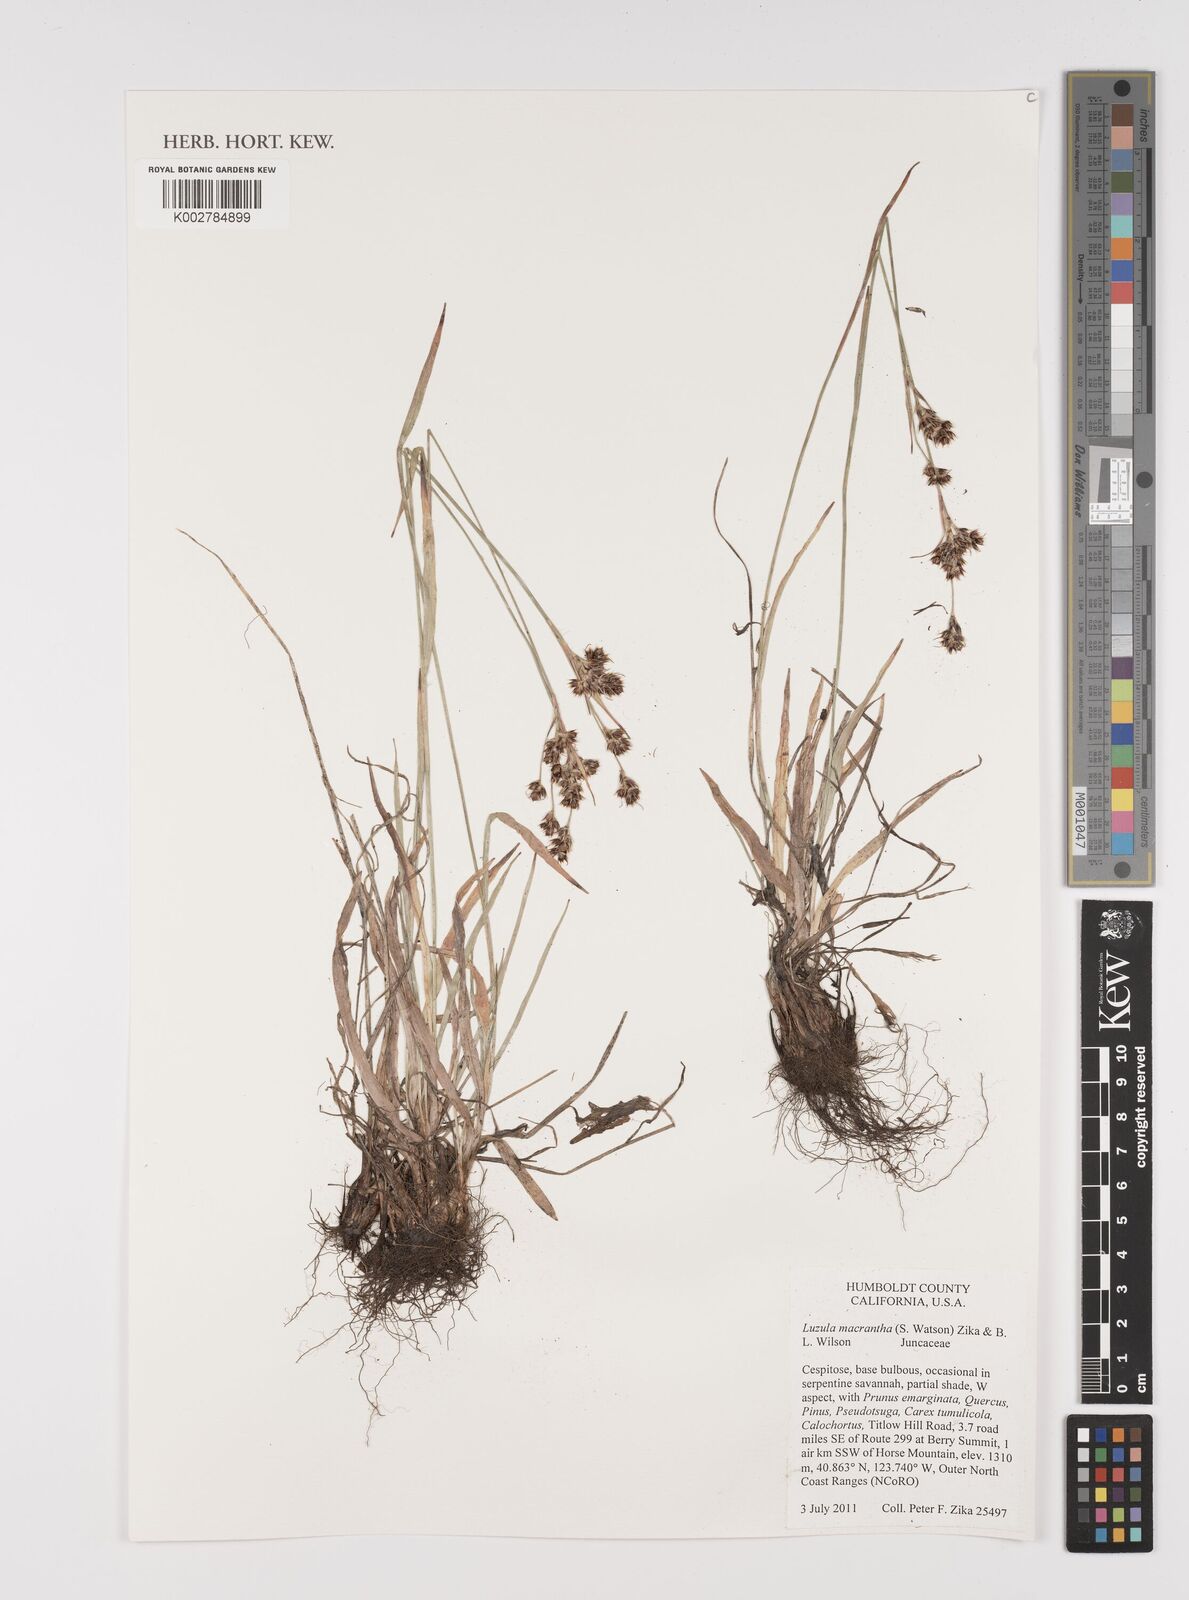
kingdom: Plantae
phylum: Tracheophyta
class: Liliopsida
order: Poales
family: Juncaceae
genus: Luzula
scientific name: Luzula macrantha
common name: Large-anthered woodrush
